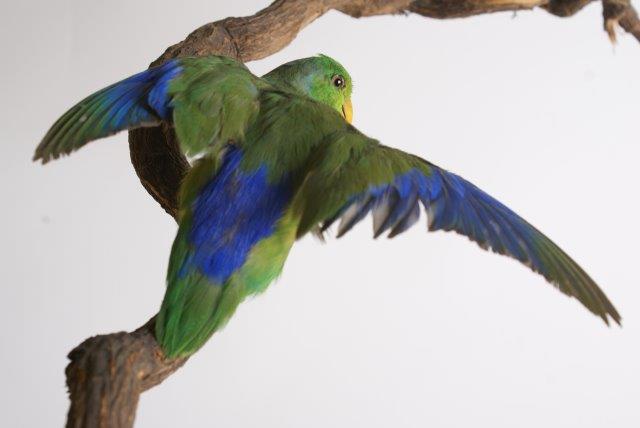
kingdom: Animalia
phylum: Chordata
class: Aves
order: Psittaciformes
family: Psittacidae
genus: Forpus
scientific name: Forpus coelestis
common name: Pacific parrotlet
